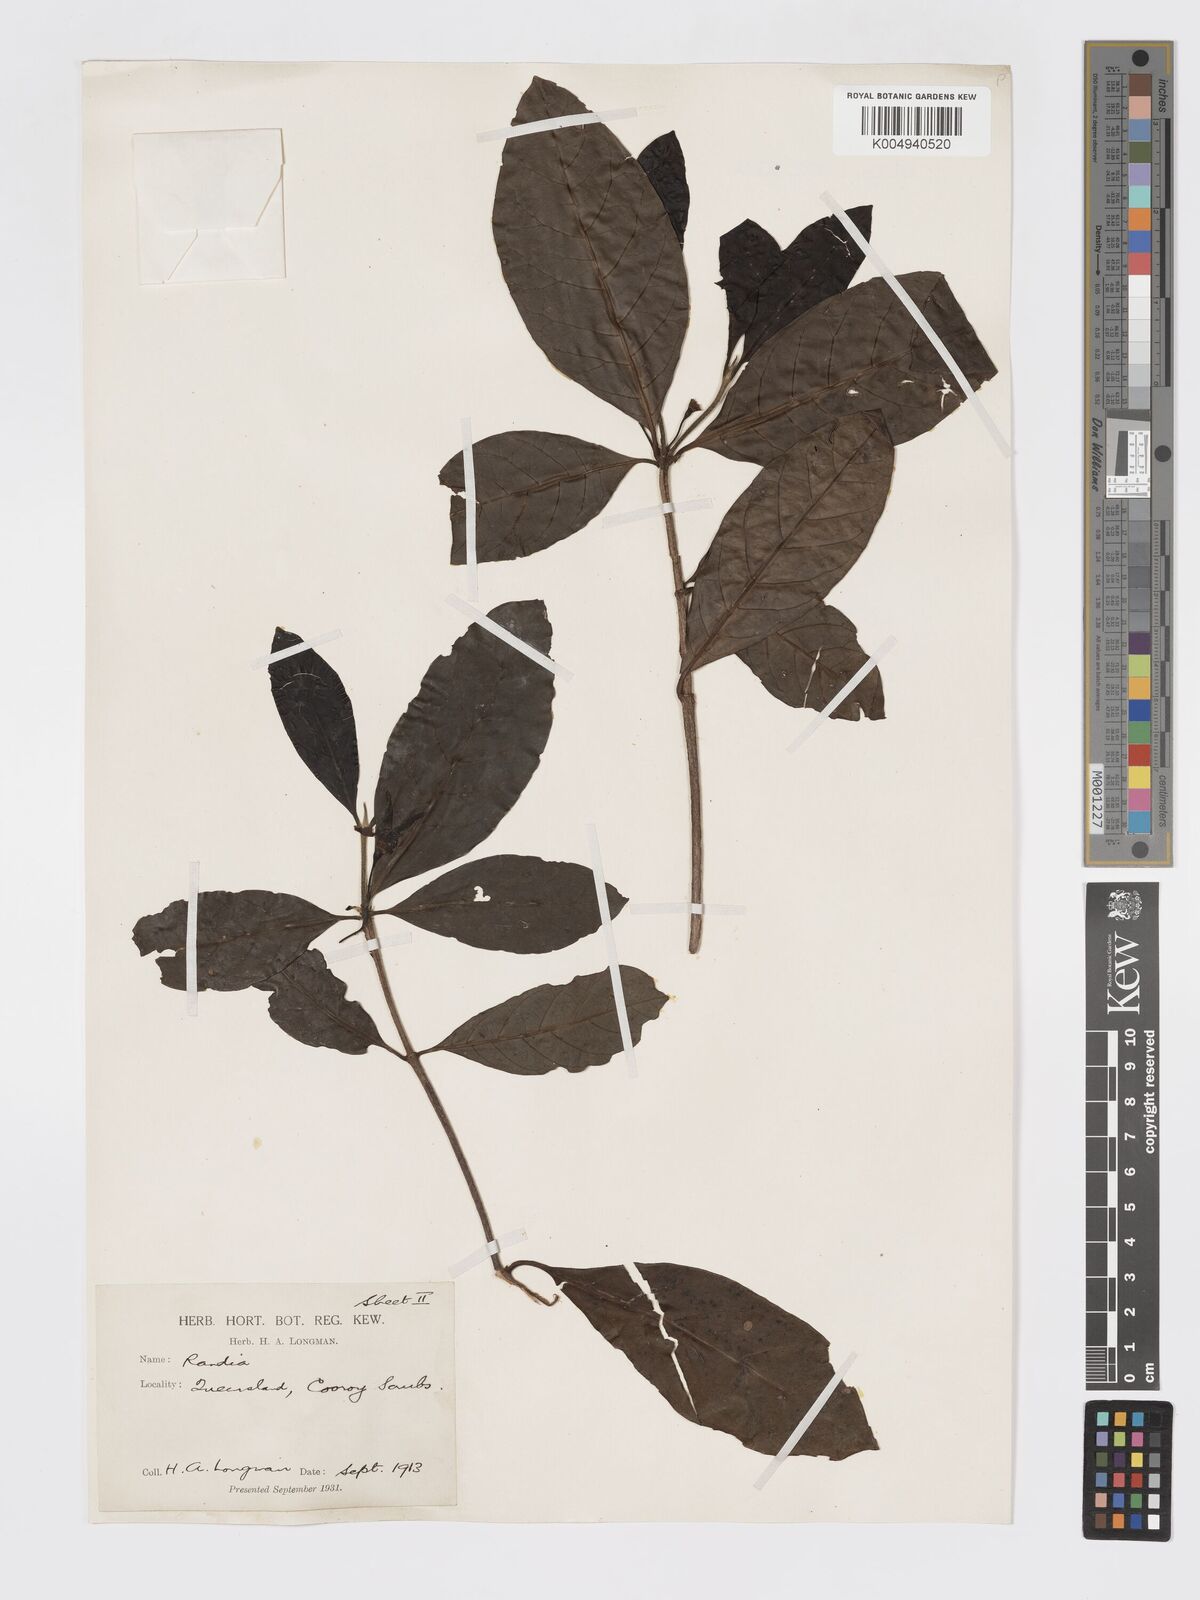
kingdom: Plantae
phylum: Tracheophyta
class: Magnoliopsida
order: Gentianales
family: Rubiaceae
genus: Atractocarpus
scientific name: Atractocarpus benthamianus
